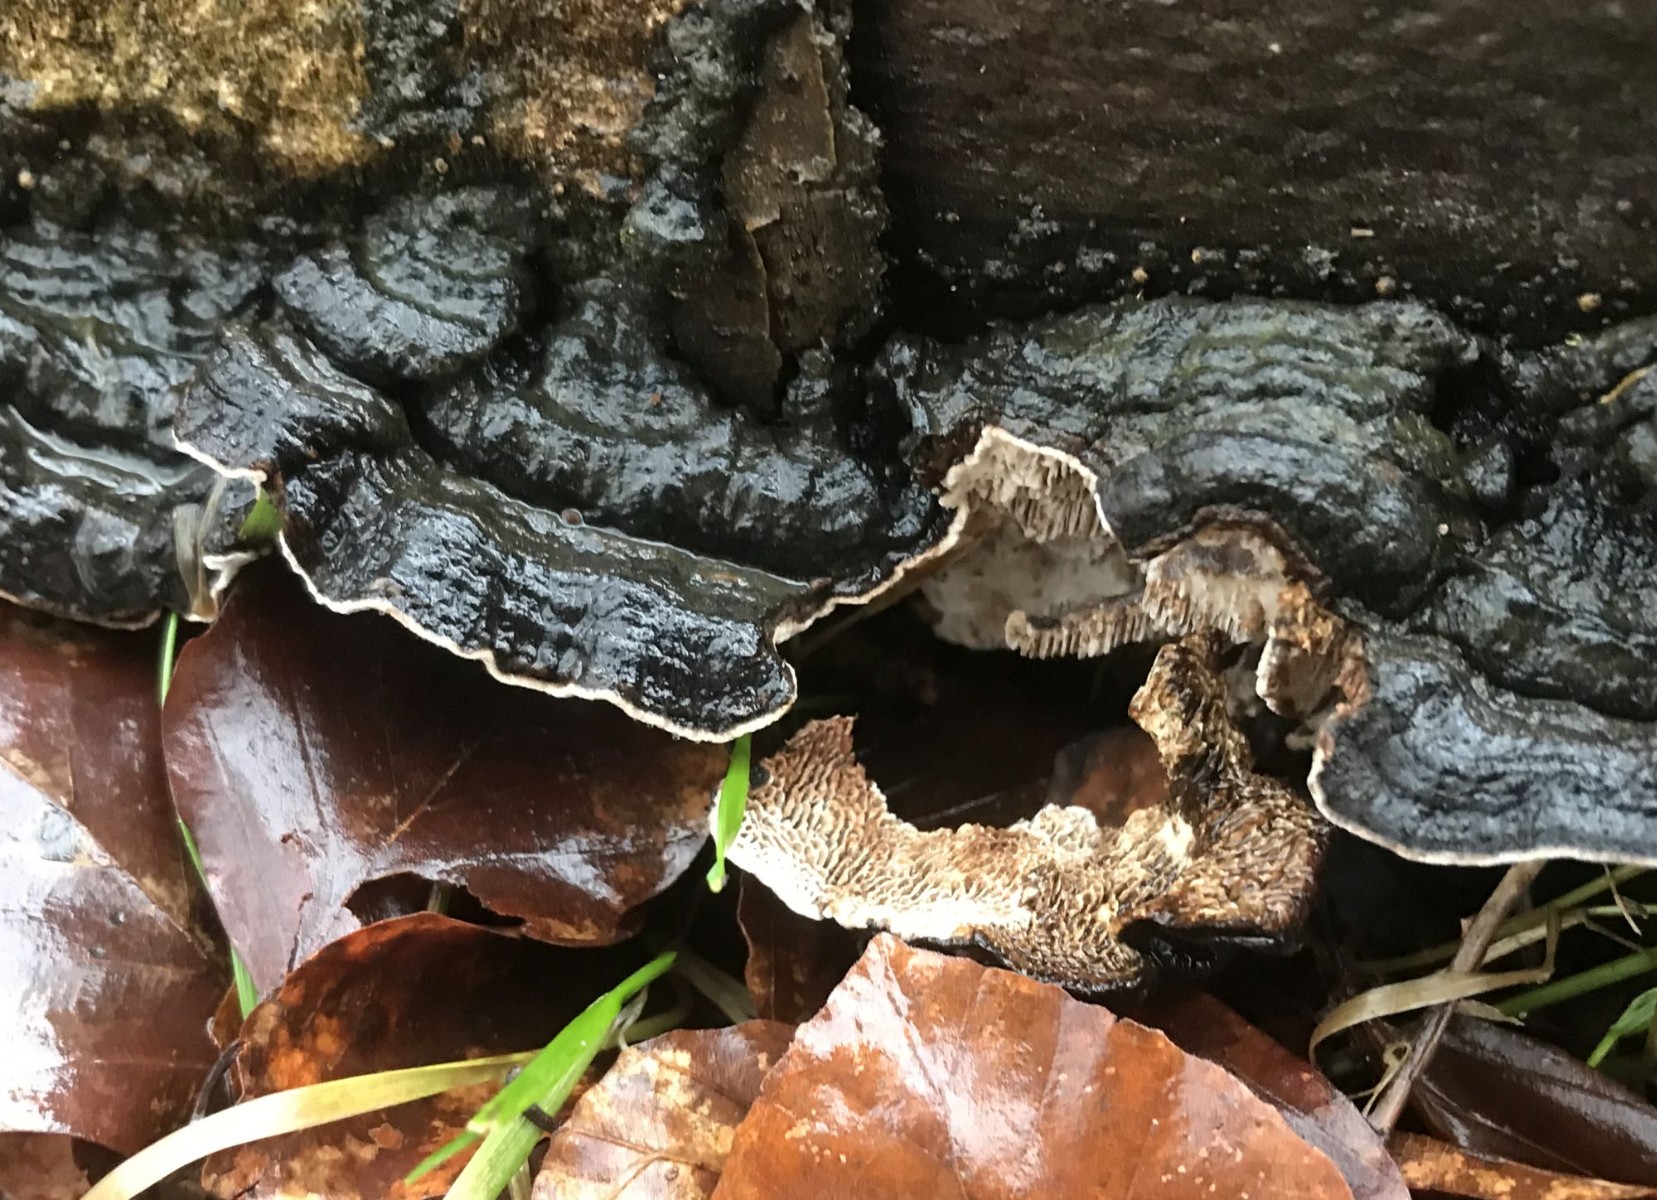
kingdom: Fungi
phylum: Basidiomycota
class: Agaricomycetes
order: Polyporales
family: Polyporaceae
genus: Podofomes
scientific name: Podofomes mollis
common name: blød begporesvamp
